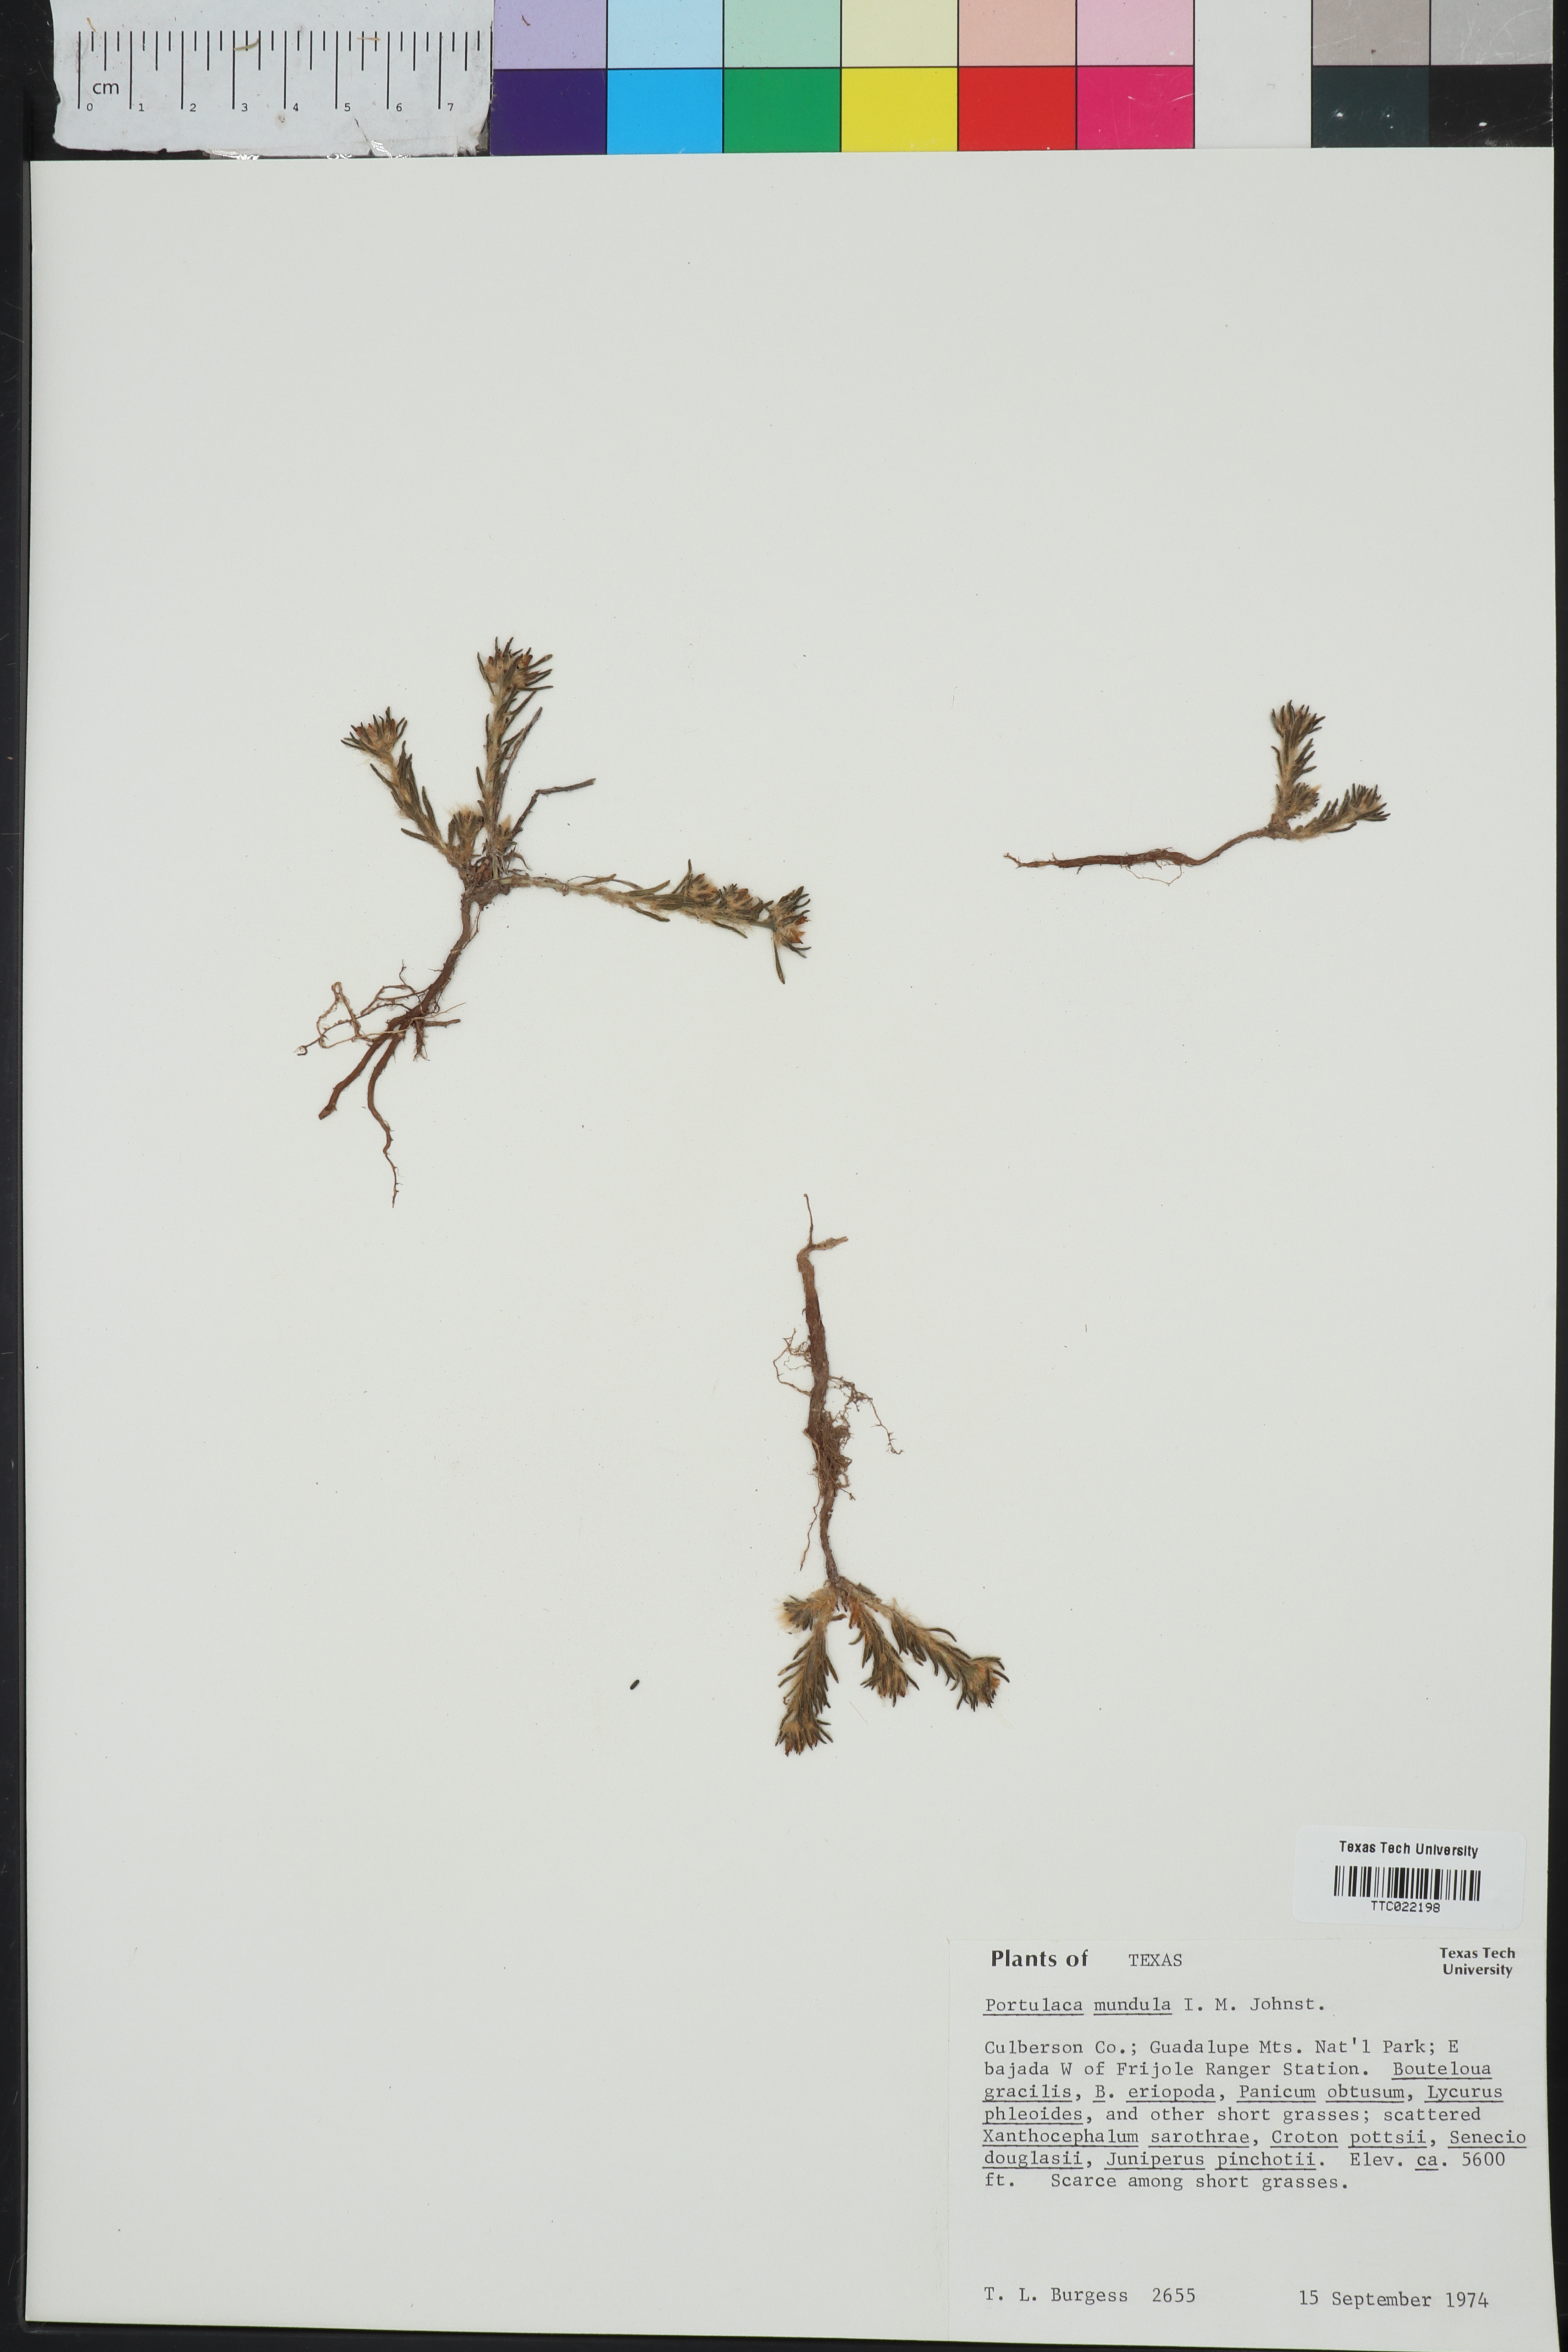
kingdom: Plantae
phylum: Tracheophyta
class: Magnoliopsida
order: Caryophyllales
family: Portulacaceae
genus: Portulaca
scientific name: Portulaca pilosa
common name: Kiss me quick
